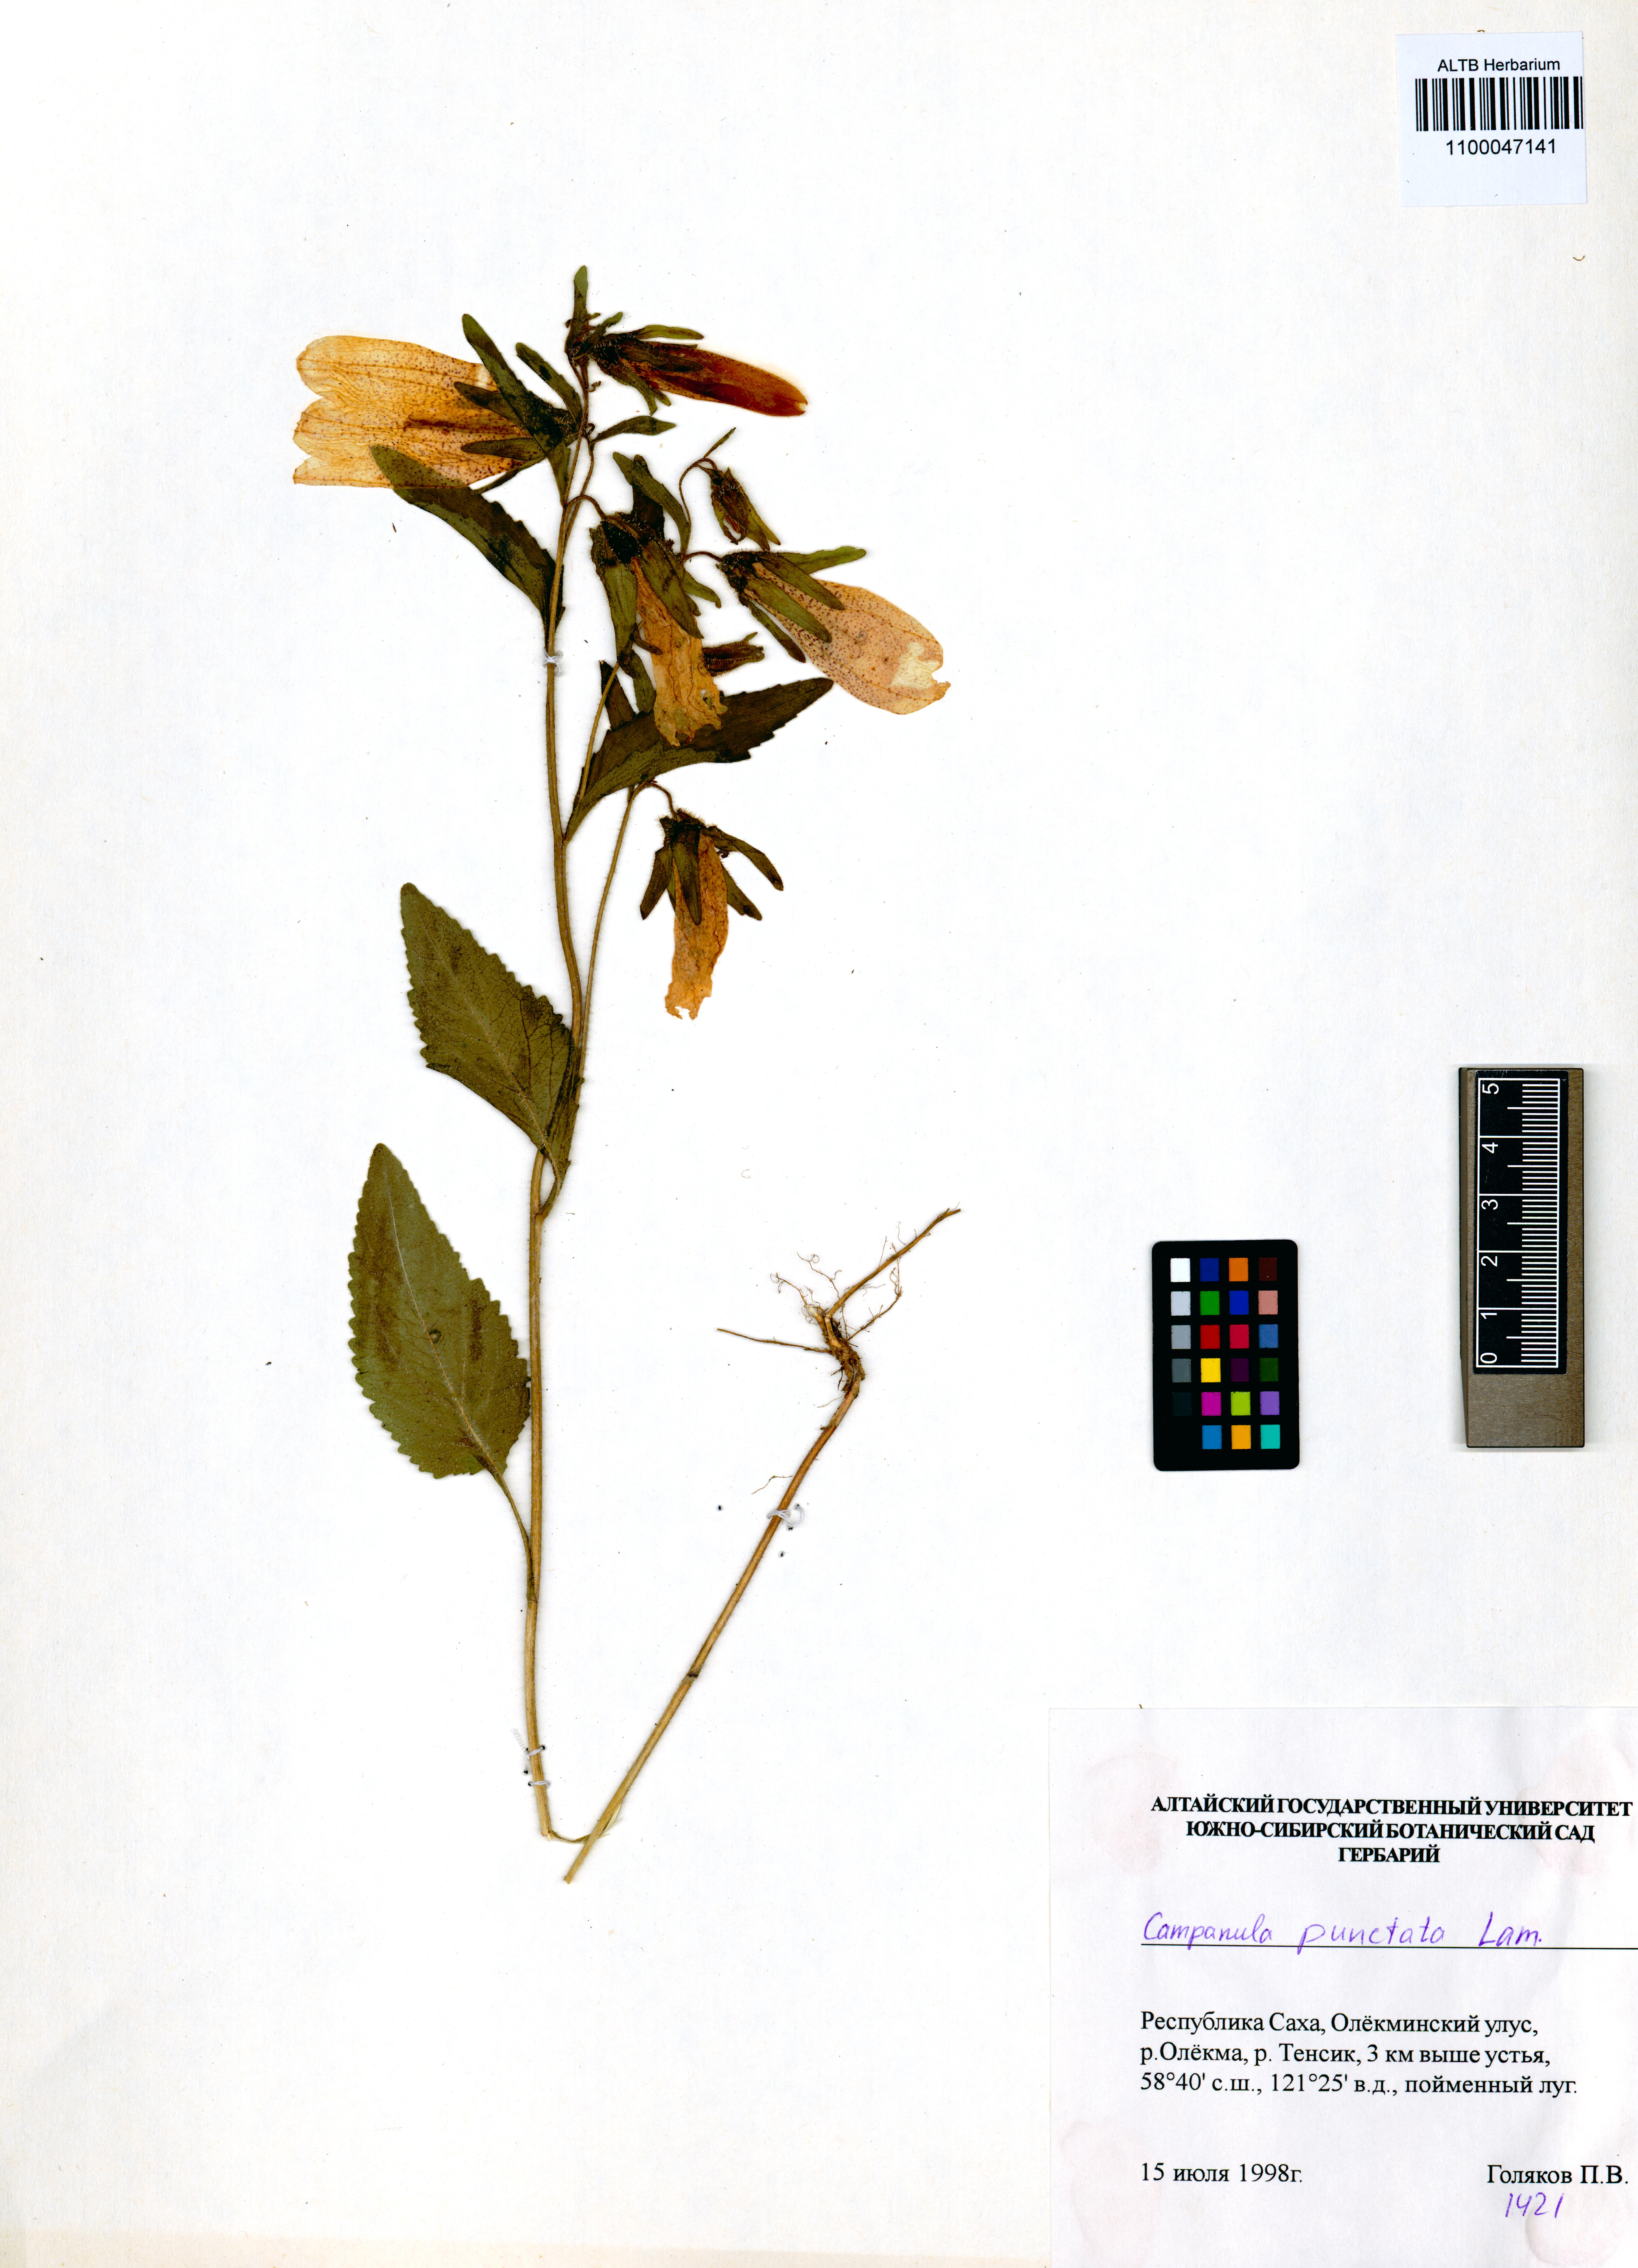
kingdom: Plantae
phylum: Tracheophyta
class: Magnoliopsida
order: Asterales
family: Campanulaceae
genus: Campanula
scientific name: Campanula punctata
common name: Spotted bellflower
